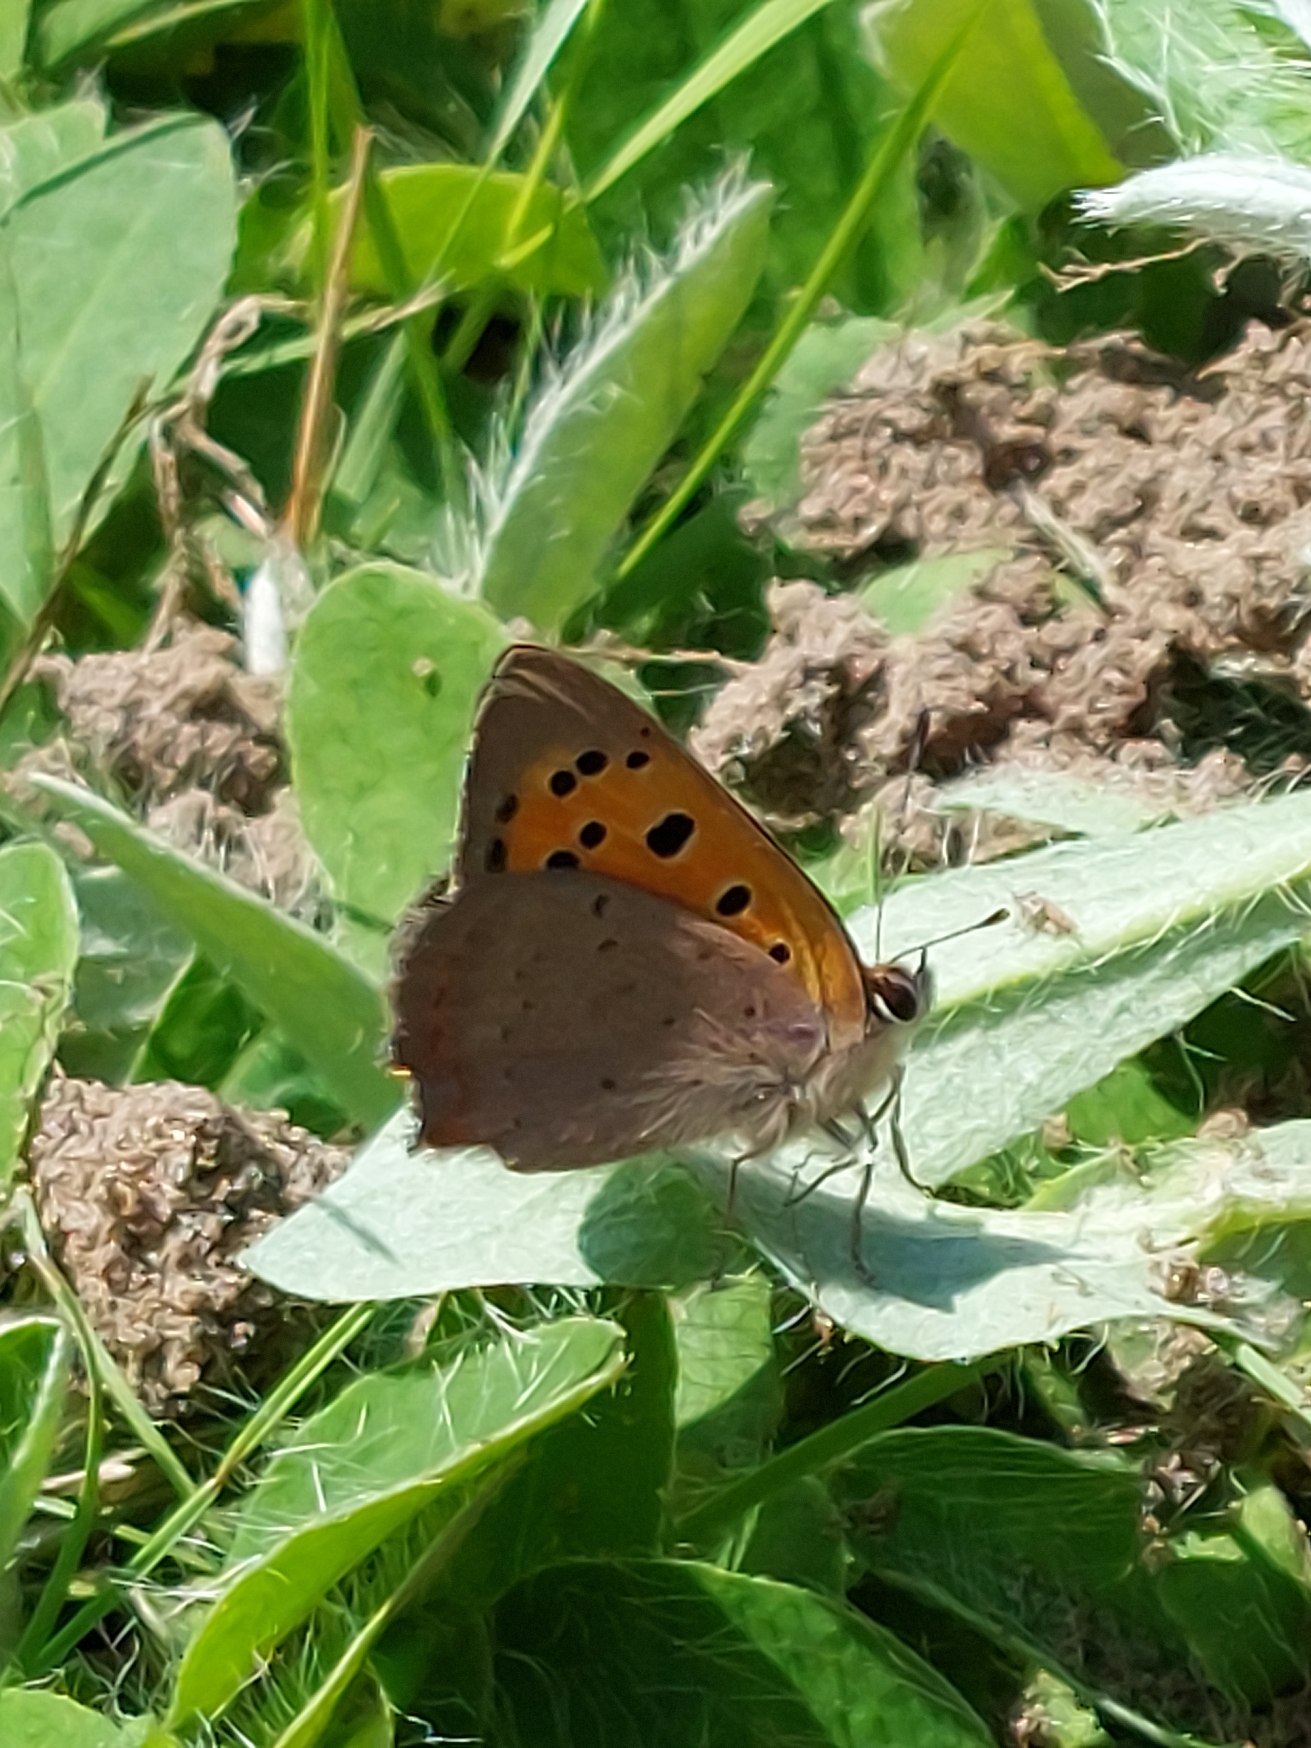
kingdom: Animalia
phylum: Arthropoda
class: Insecta
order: Lepidoptera
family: Lycaenidae
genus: Lycaena
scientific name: Lycaena phlaeas
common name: Lille ildfugl
